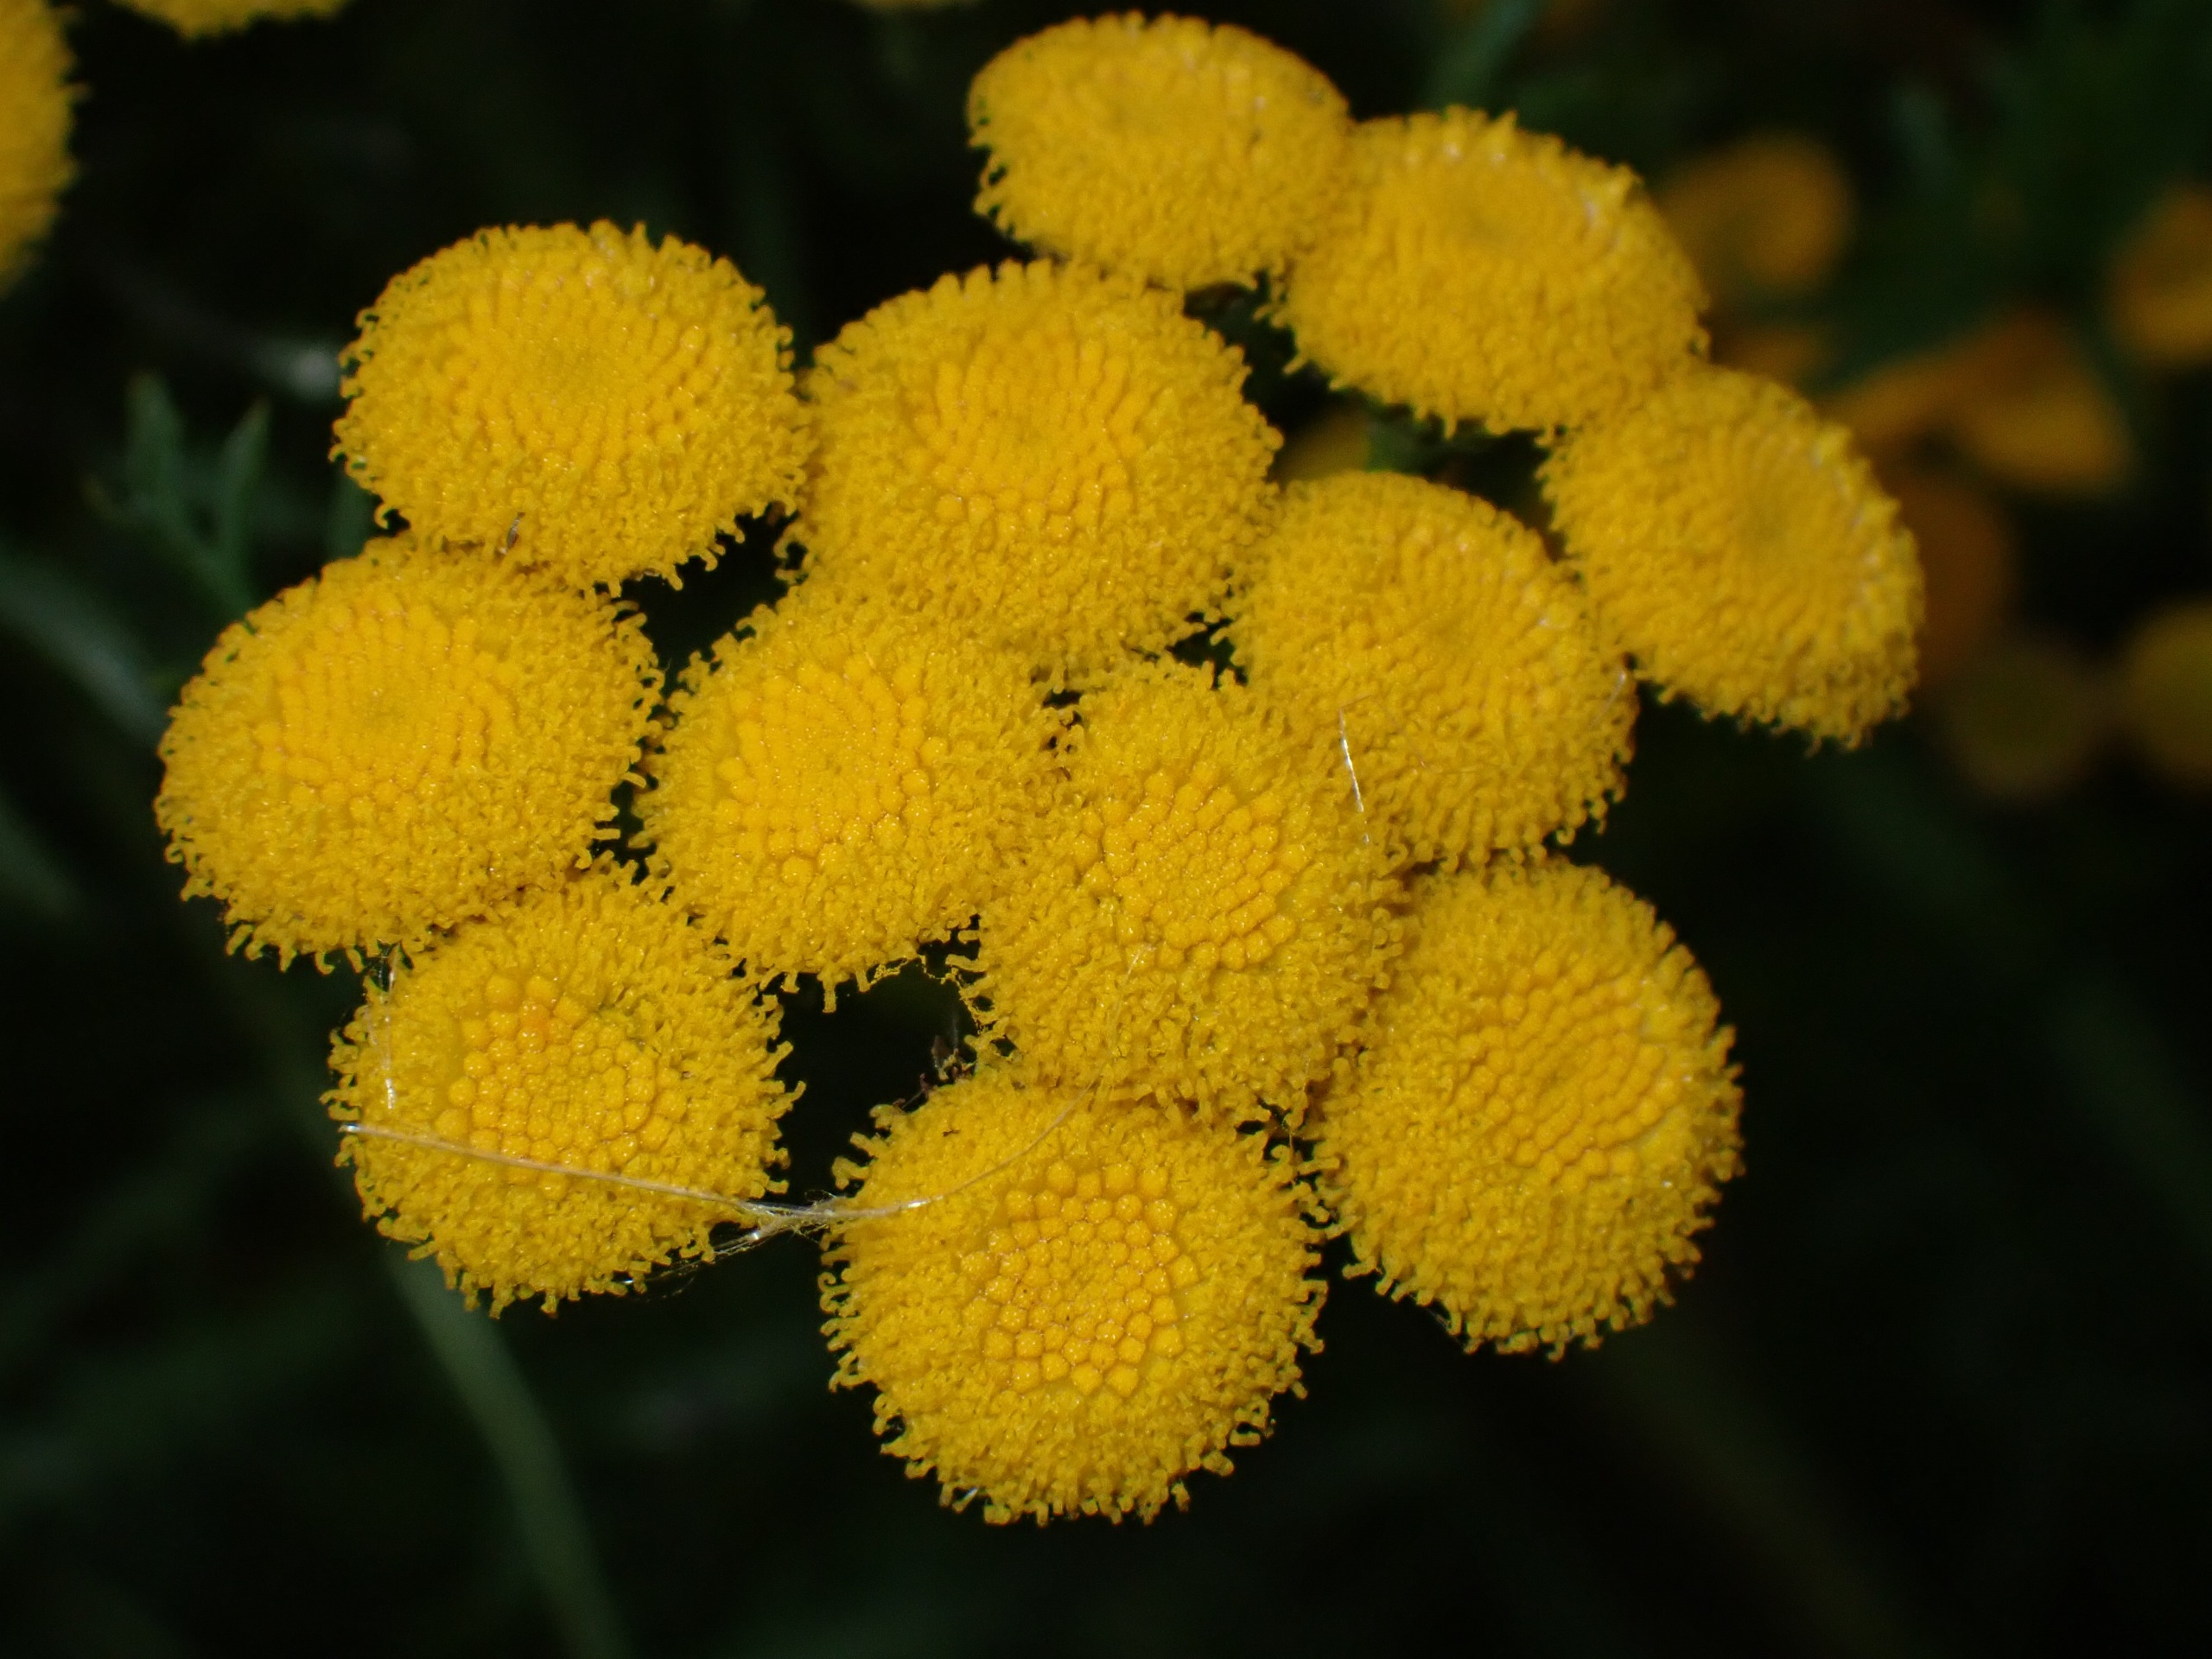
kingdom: Plantae
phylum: Tracheophyta
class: Magnoliopsida
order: Asterales
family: Asteraceae
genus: Tanacetum
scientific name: Tanacetum vulgare
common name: Rejnfan
